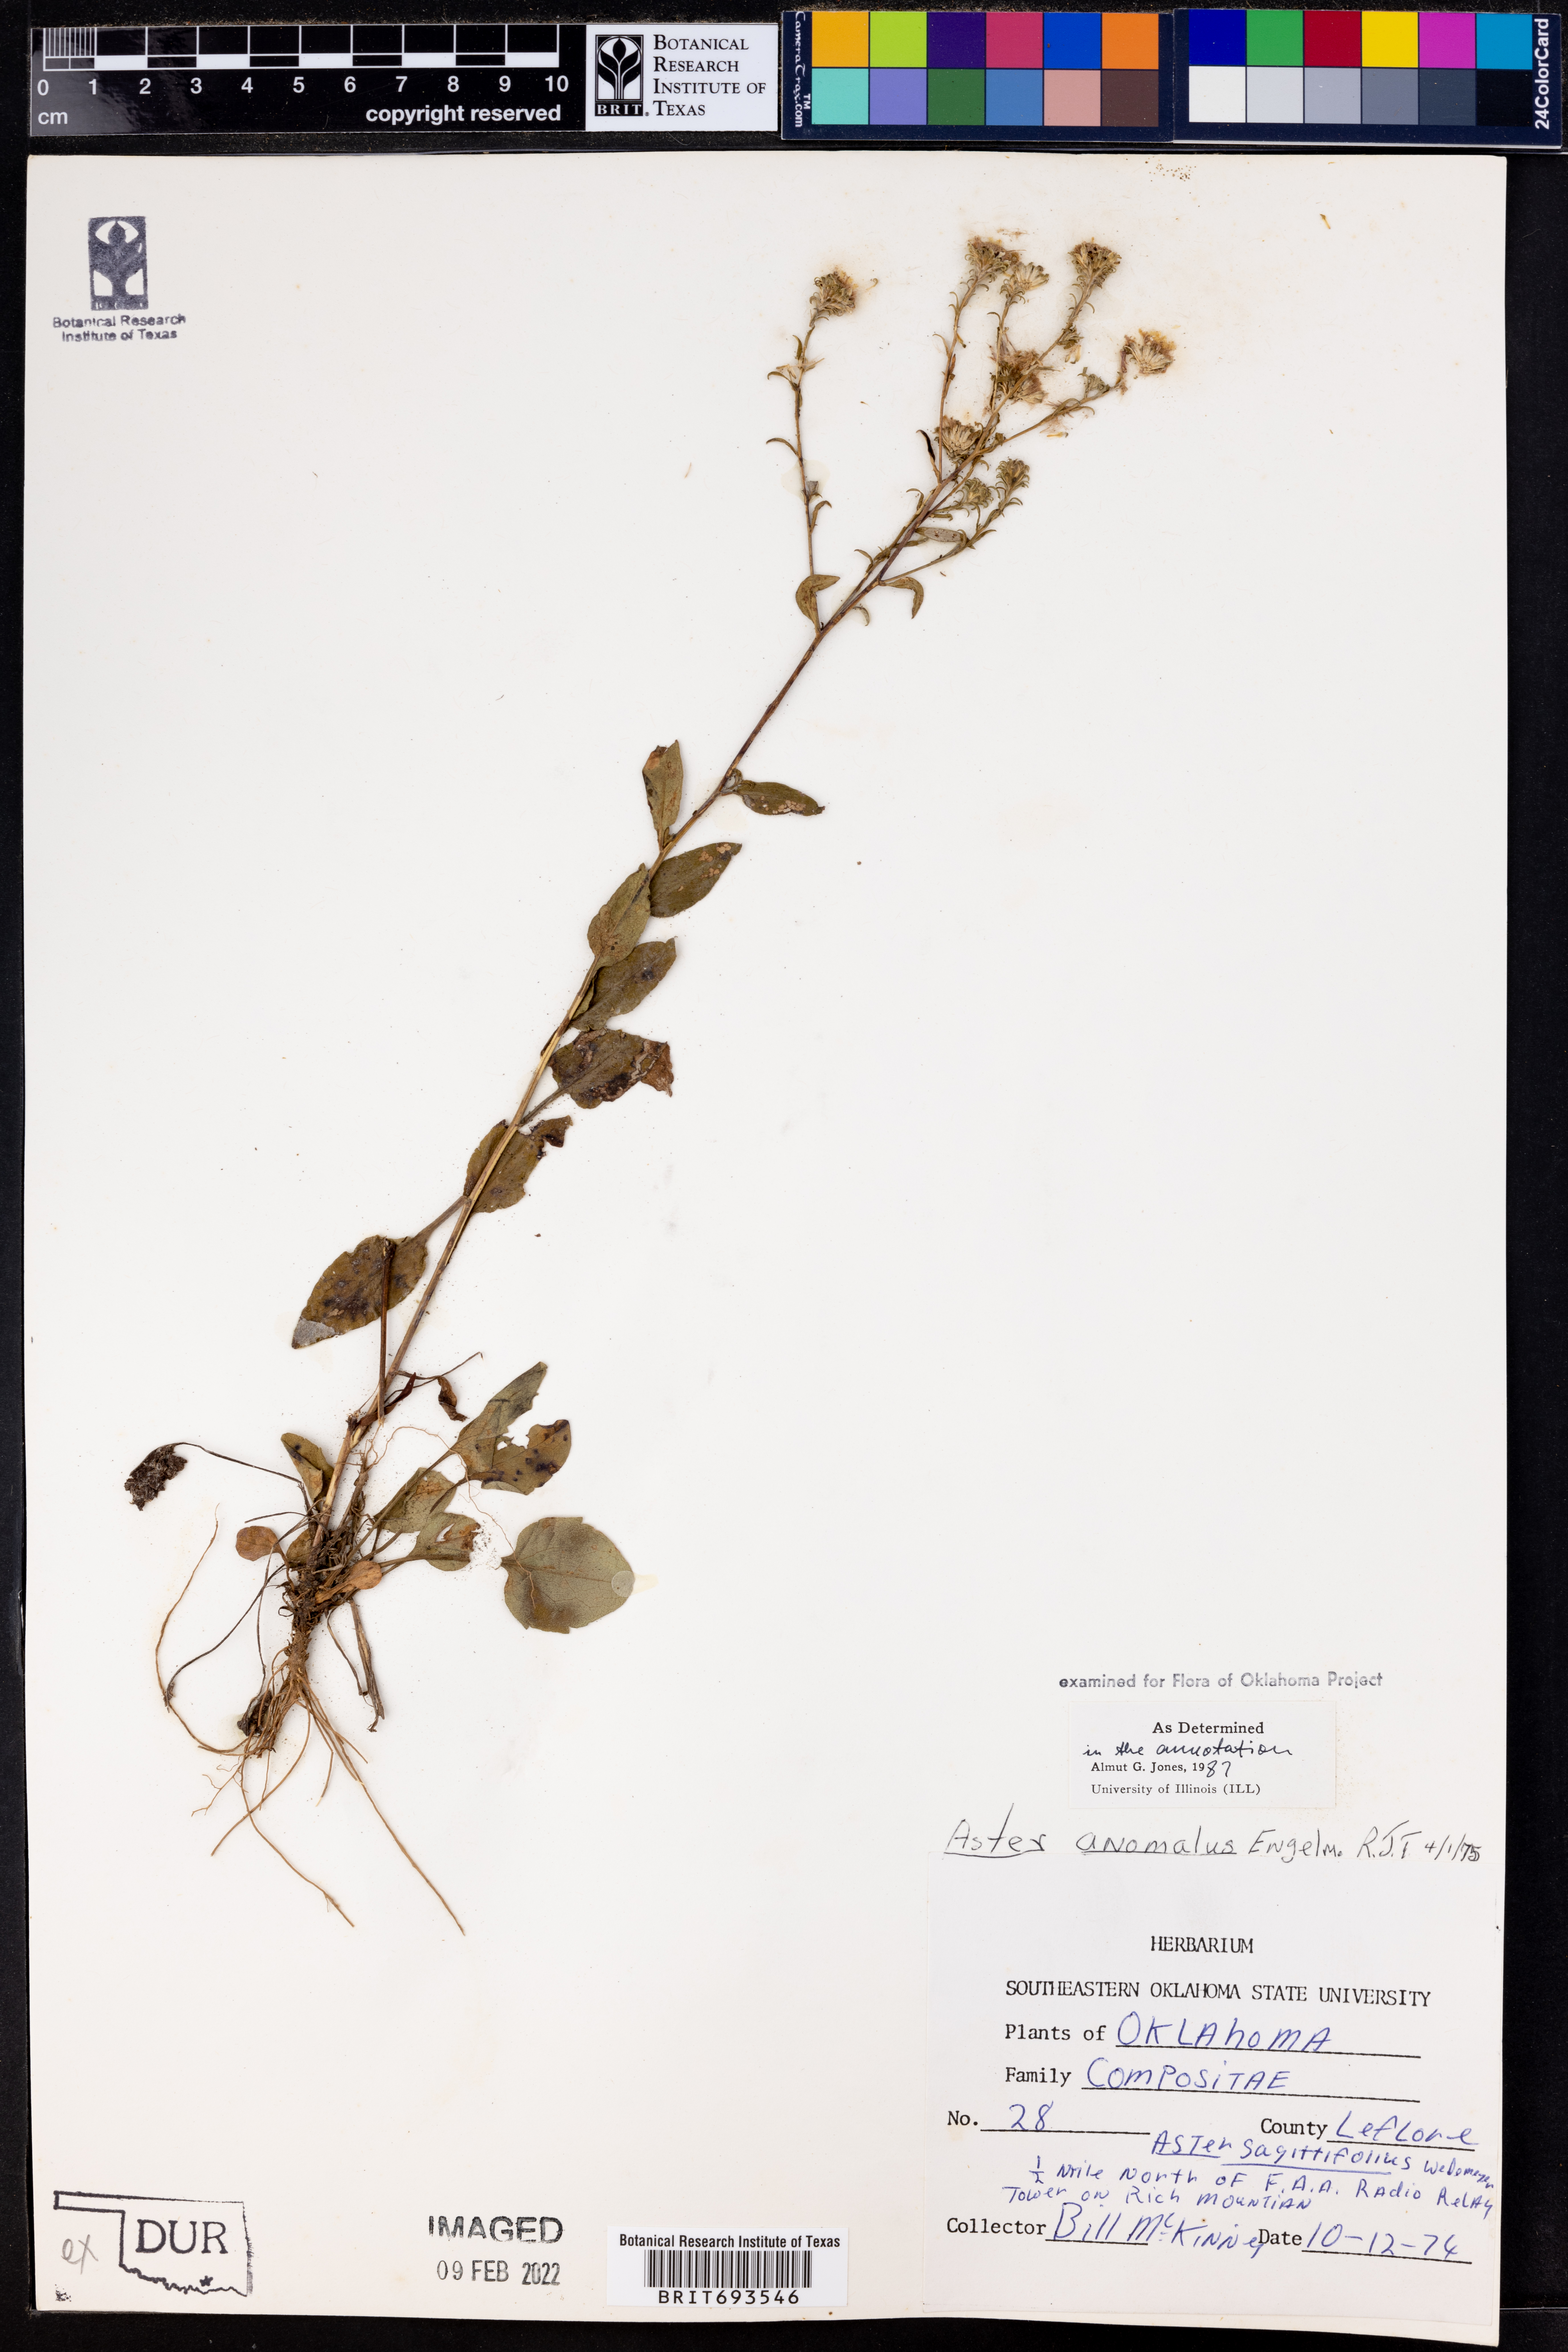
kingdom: Plantae
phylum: Tracheophyta
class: Magnoliopsida
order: Asterales
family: Asteraceae
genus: Symphyotrichum
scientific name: Symphyotrichum anomalum
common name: Many-ray aster
